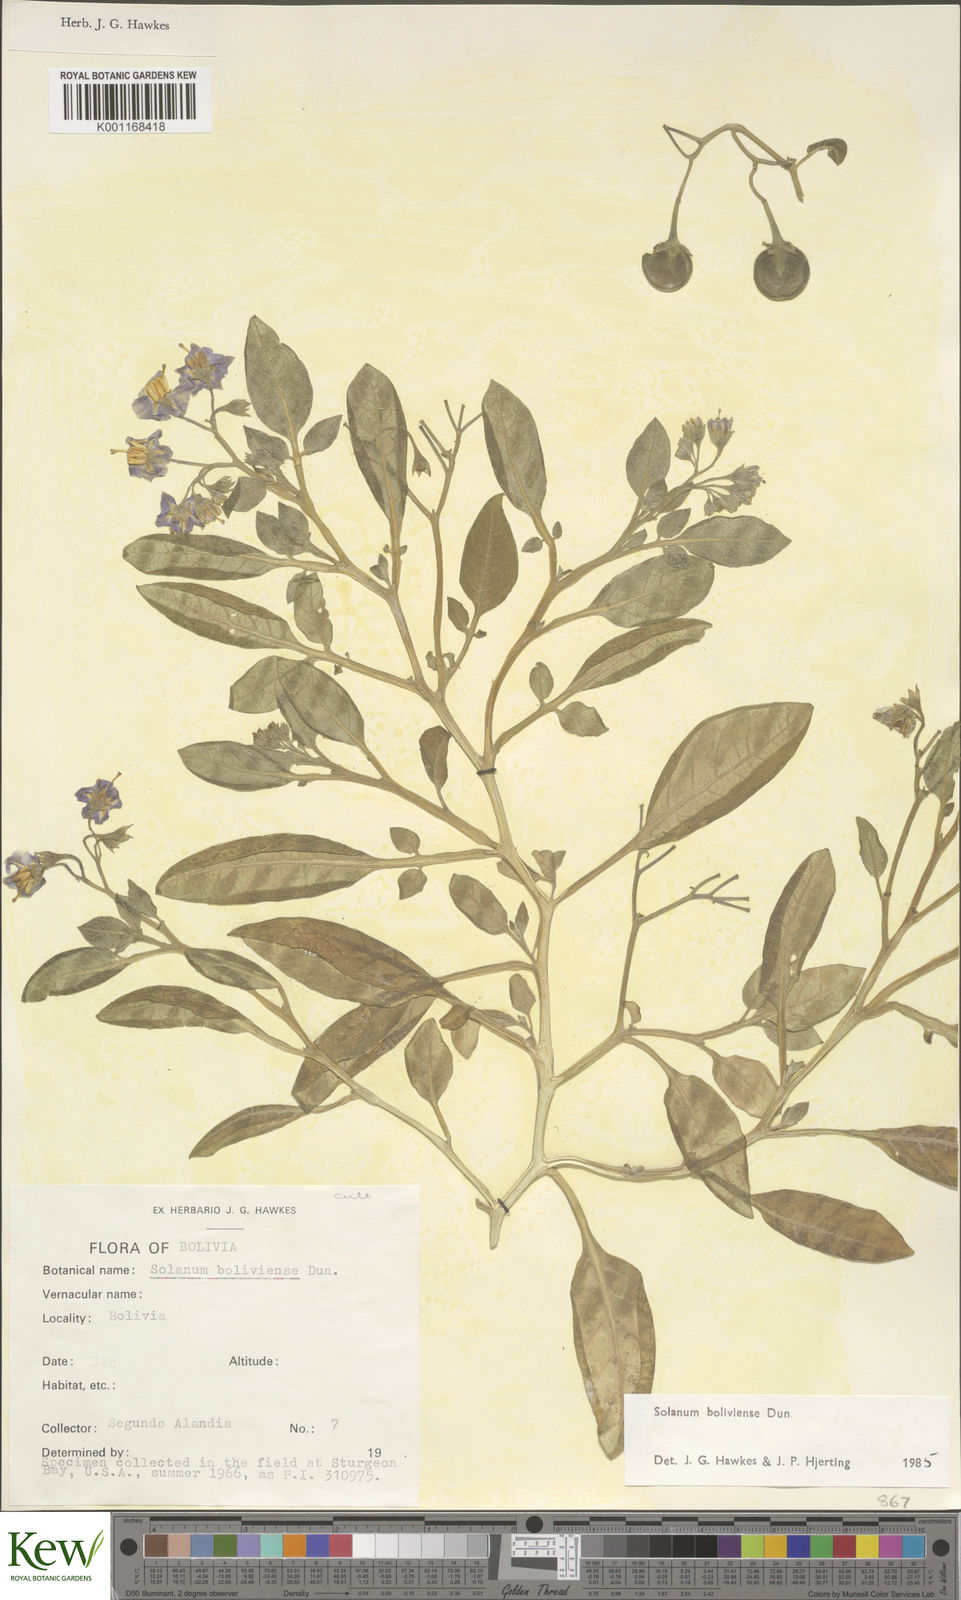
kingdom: Plantae
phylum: Tracheophyta
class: Magnoliopsida
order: Solanales
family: Solanaceae
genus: Solanum
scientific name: Solanum boliviense
